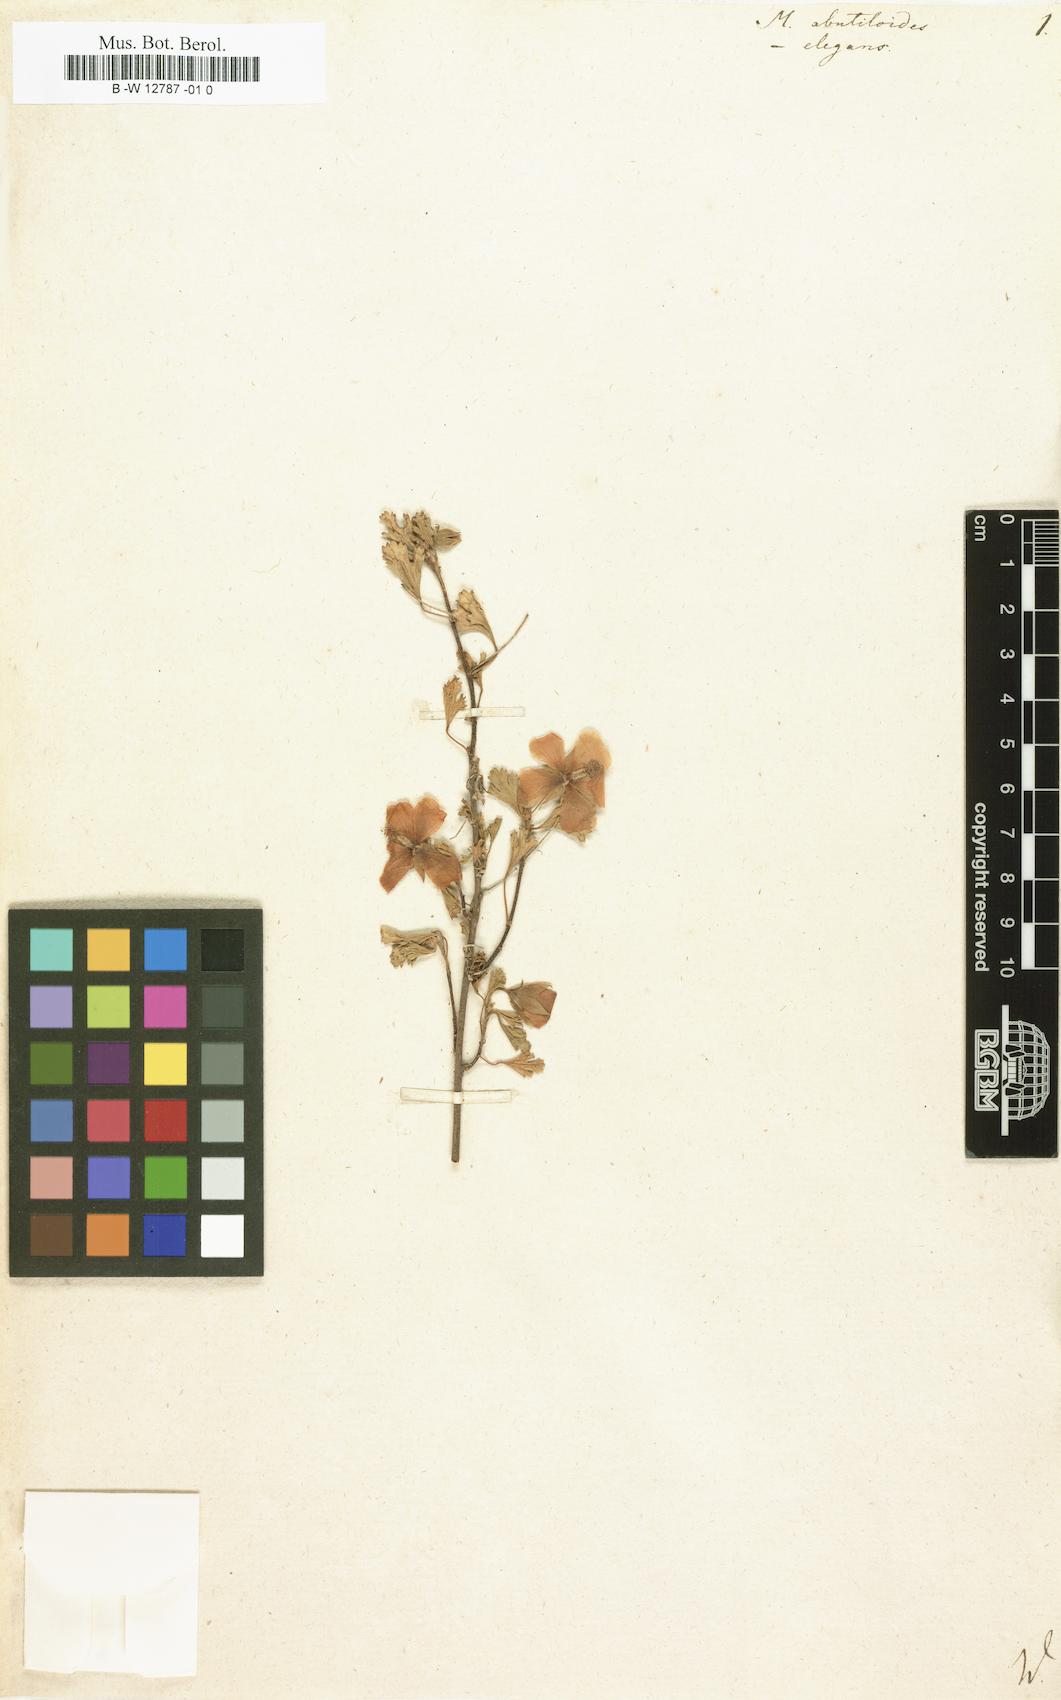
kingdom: Plantae
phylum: Tracheophyta
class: Magnoliopsida
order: Malvales
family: Malvaceae
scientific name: Malvaceae
